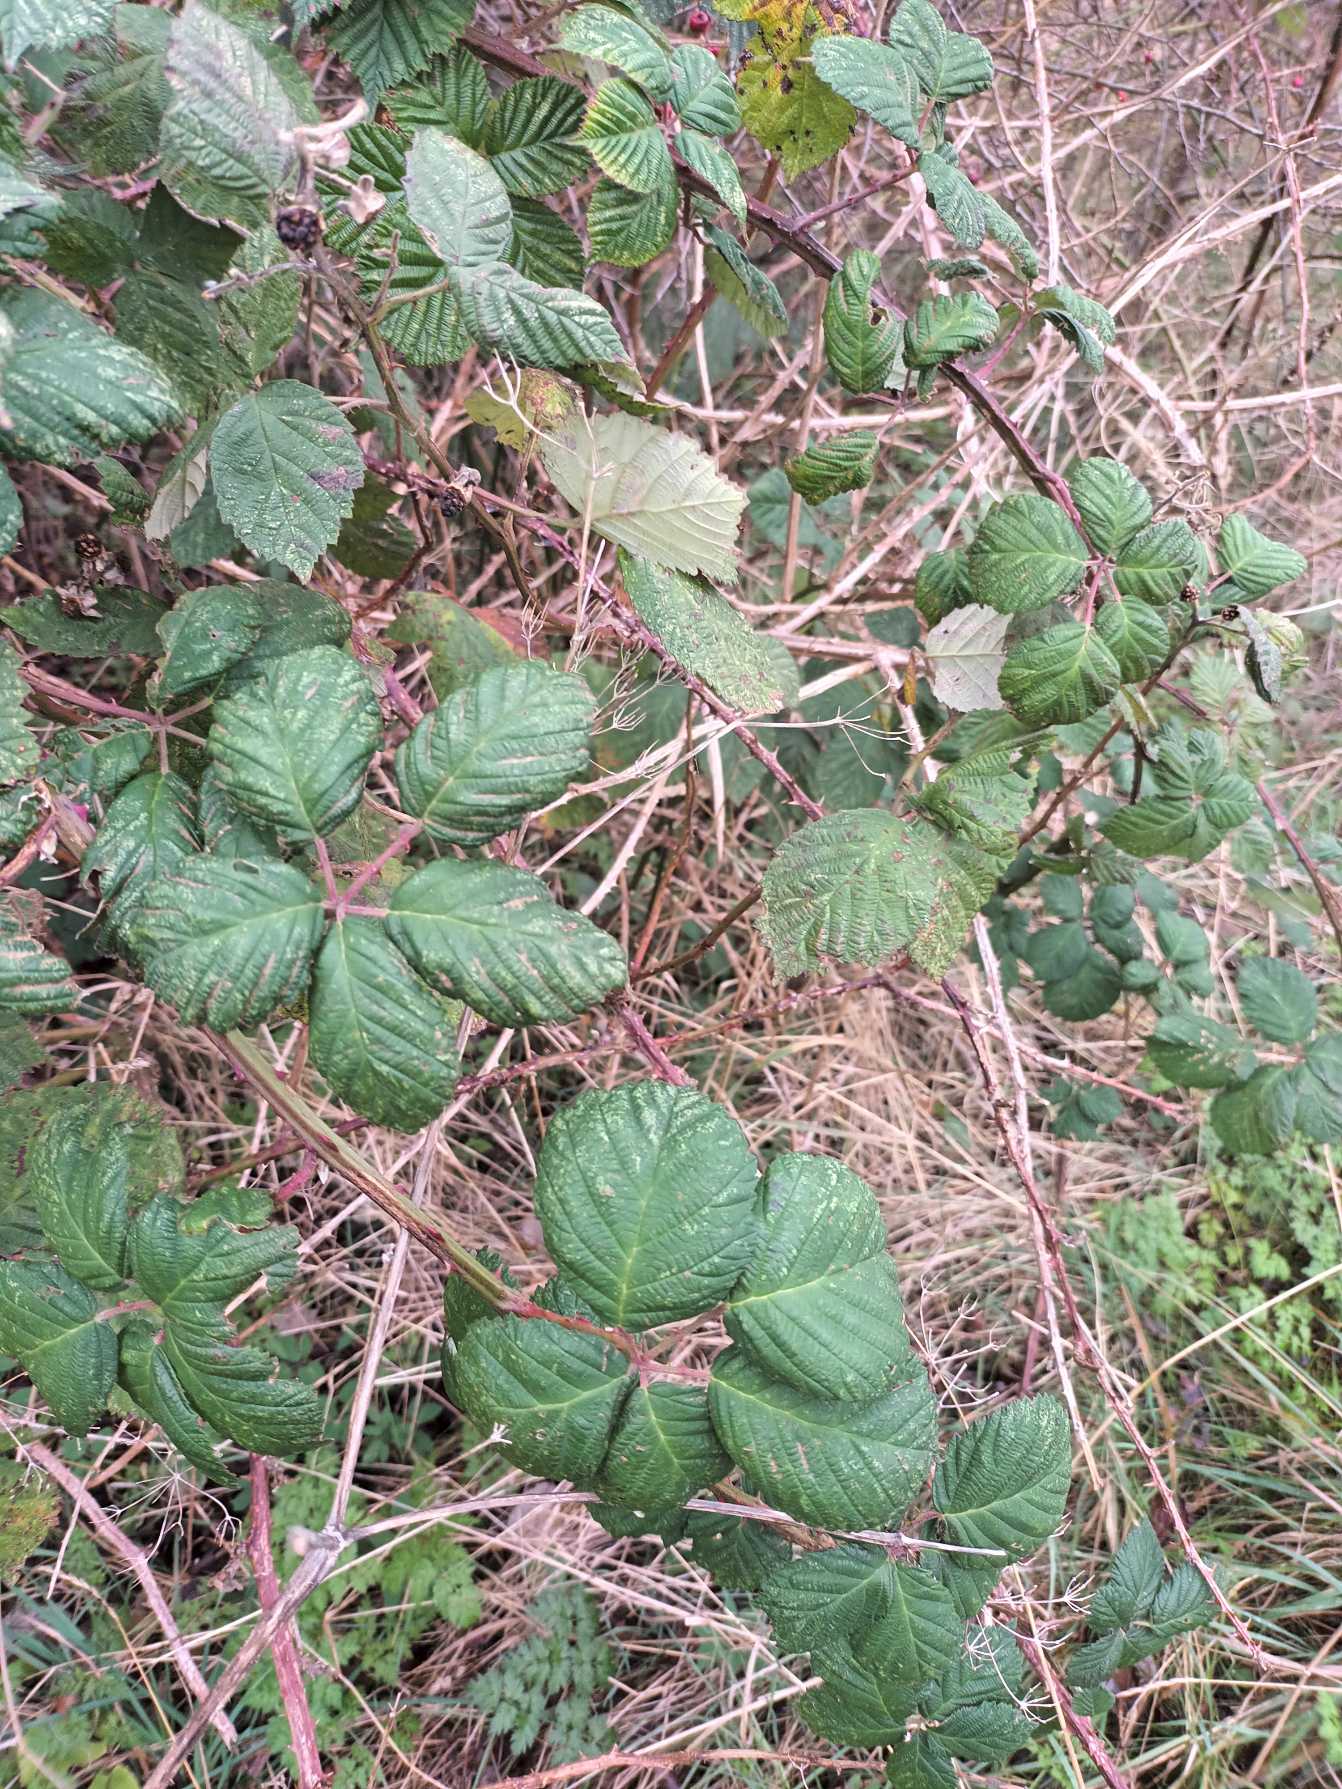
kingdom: Plantae
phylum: Tracheophyta
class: Magnoliopsida
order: Rosales
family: Rosaceae
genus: Rubus
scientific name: Rubus armeniacus
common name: Armensk brombær
